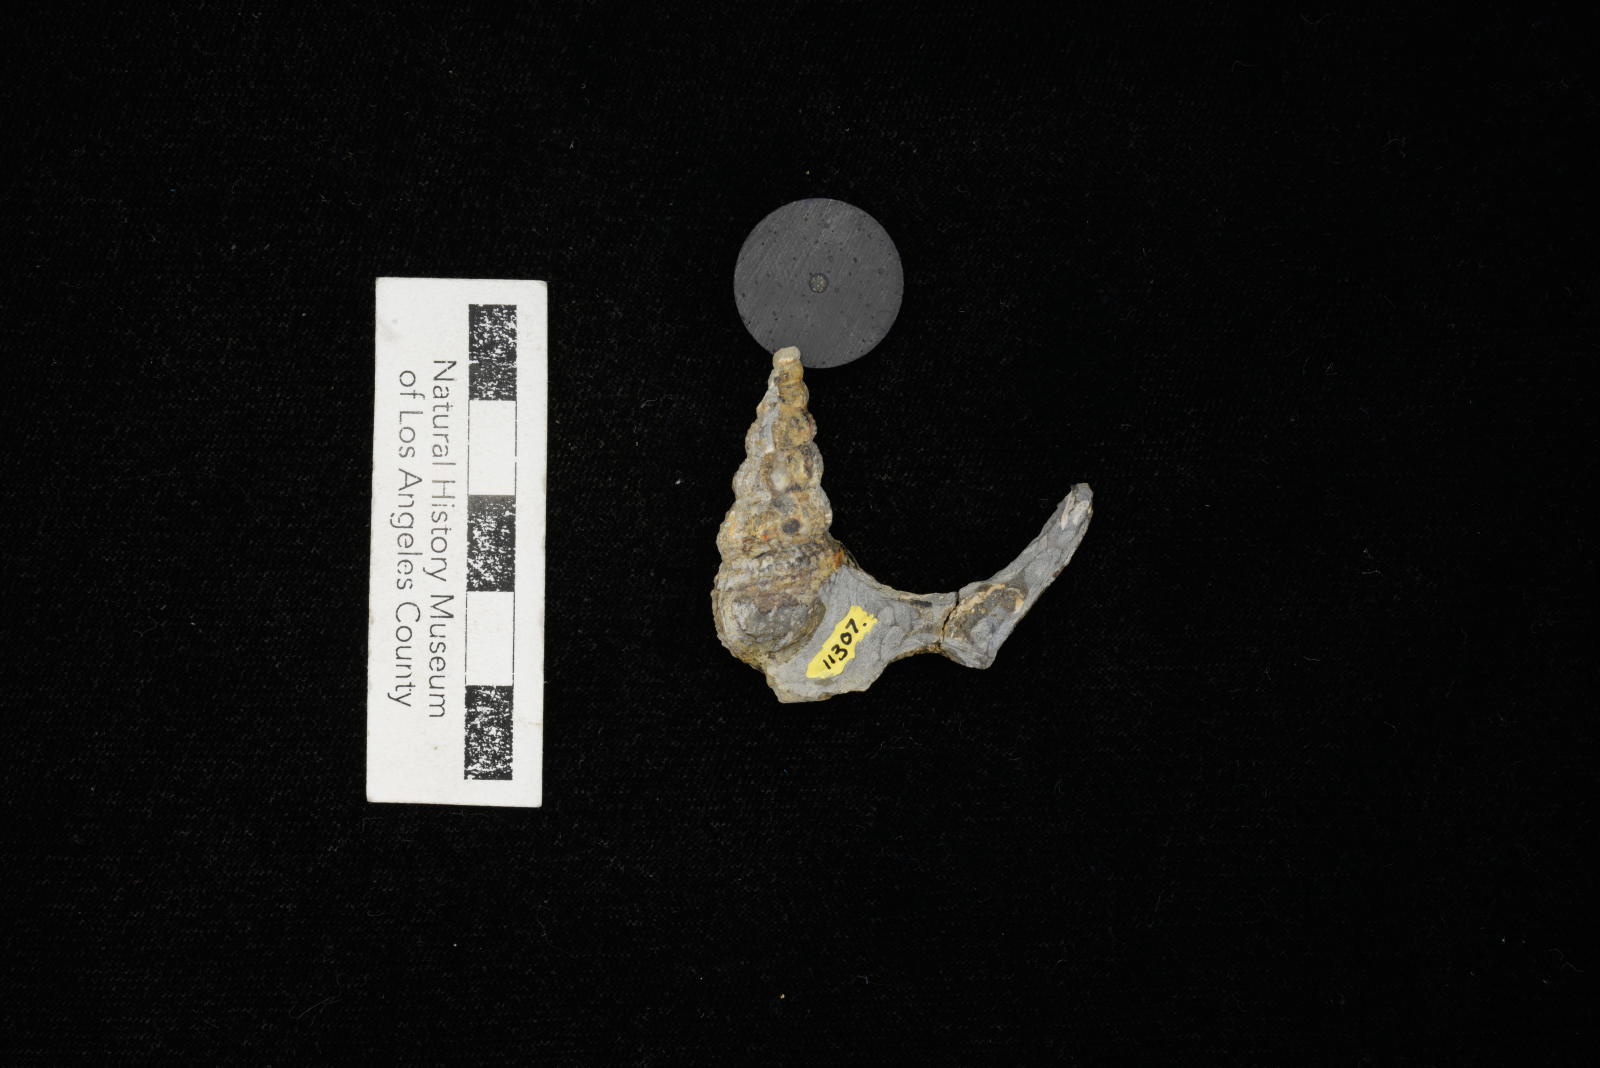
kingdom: Animalia
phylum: Mollusca
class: Gastropoda
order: Littorinimorpha
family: Aporrhaidae
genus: Anchura
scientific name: Anchura halberdopsis
